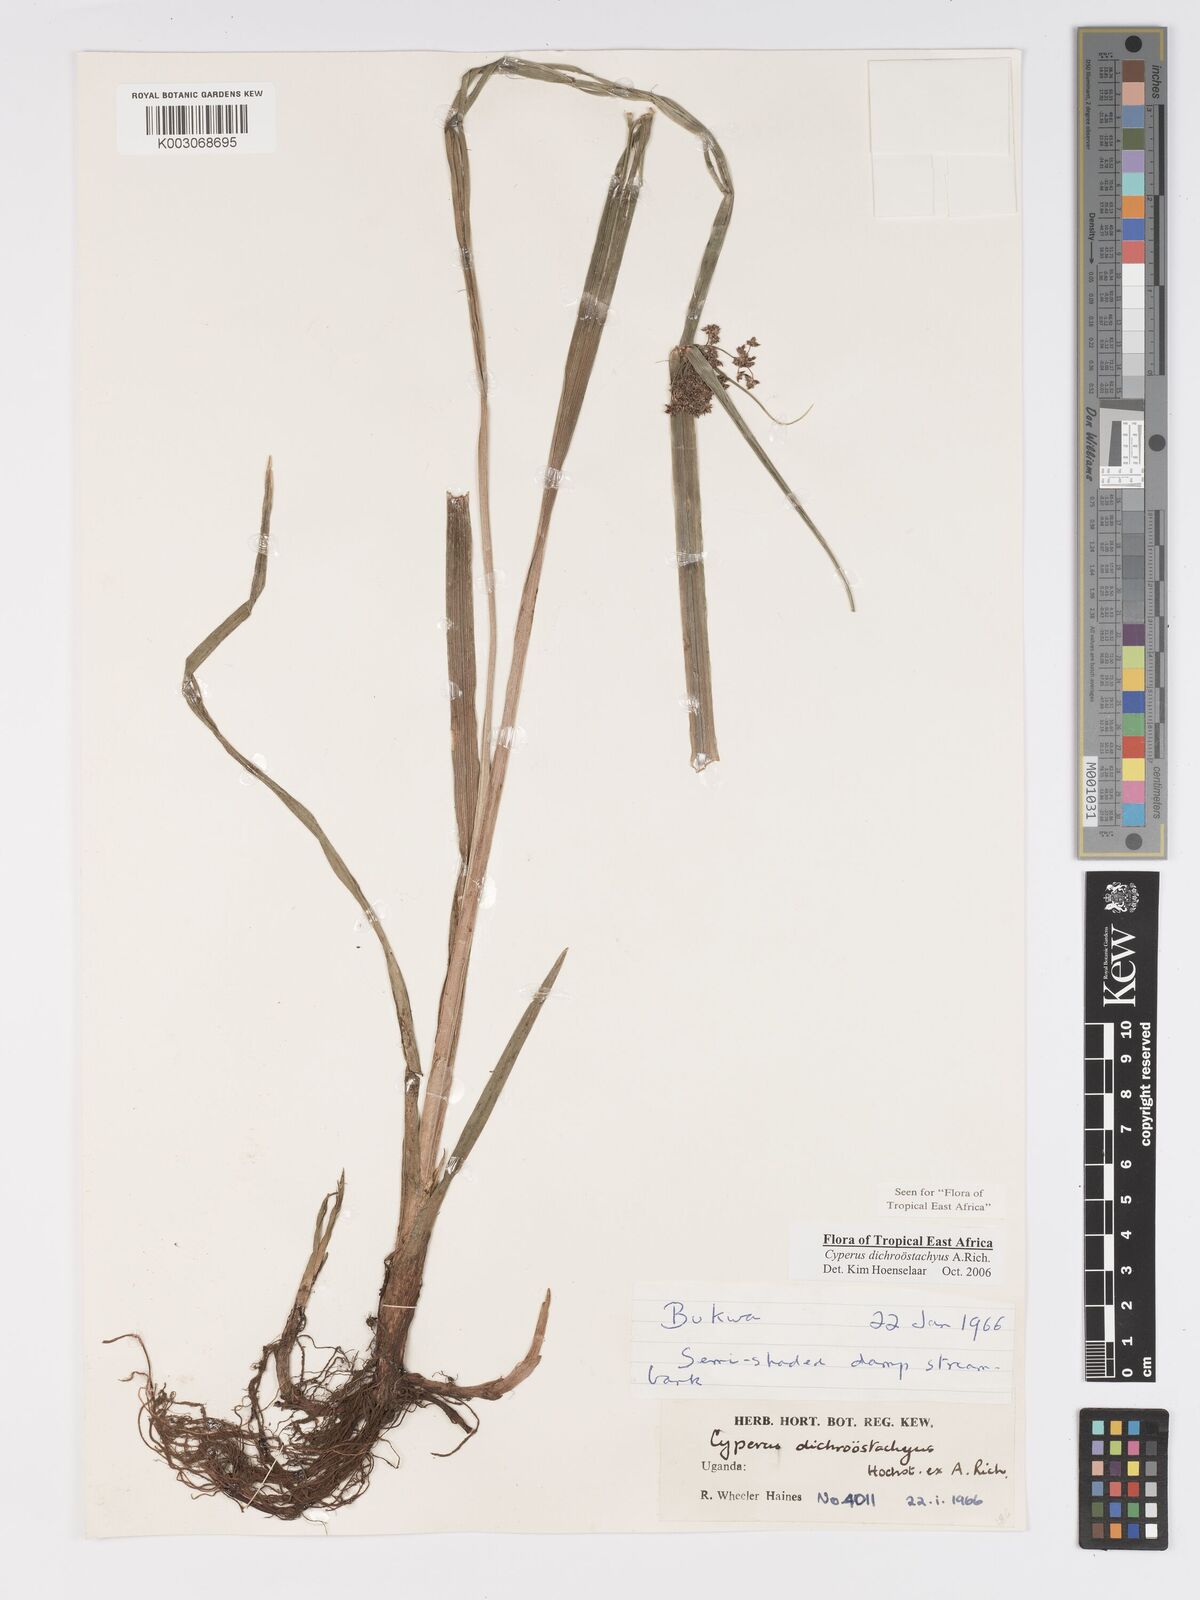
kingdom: Plantae
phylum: Tracheophyta
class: Liliopsida
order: Poales
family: Cyperaceae
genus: Cyperus
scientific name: Cyperus dichrostachyus
